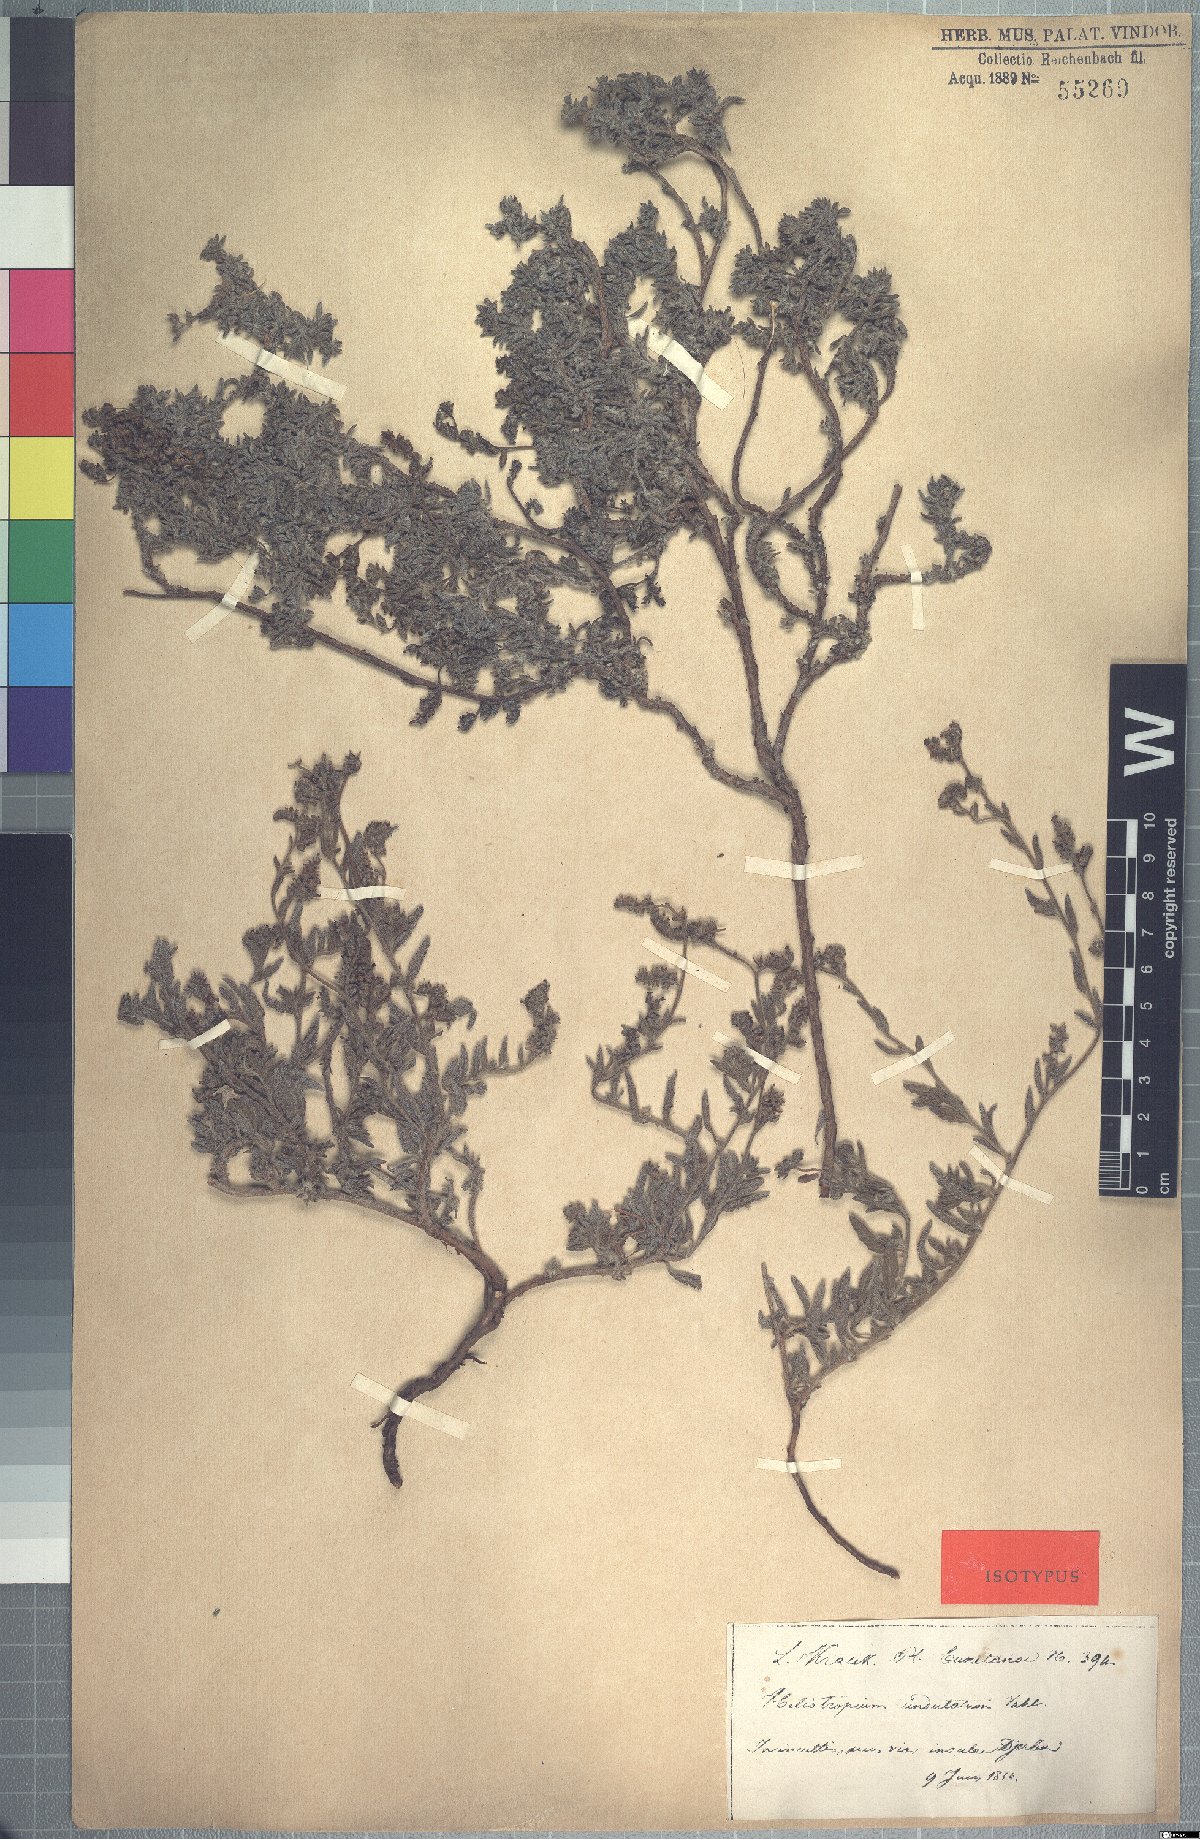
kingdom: Plantae
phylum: Tracheophyta
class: Magnoliopsida
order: Boraginales
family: Heliotropiaceae
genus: Heliotropium
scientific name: Heliotropium crispum
